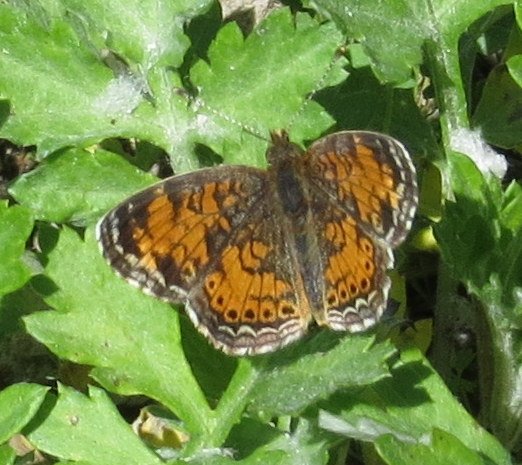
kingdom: Animalia
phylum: Arthropoda
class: Insecta
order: Lepidoptera
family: Nymphalidae
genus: Phyciodes
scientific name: Phyciodes tharos
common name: Pearl Crescent
